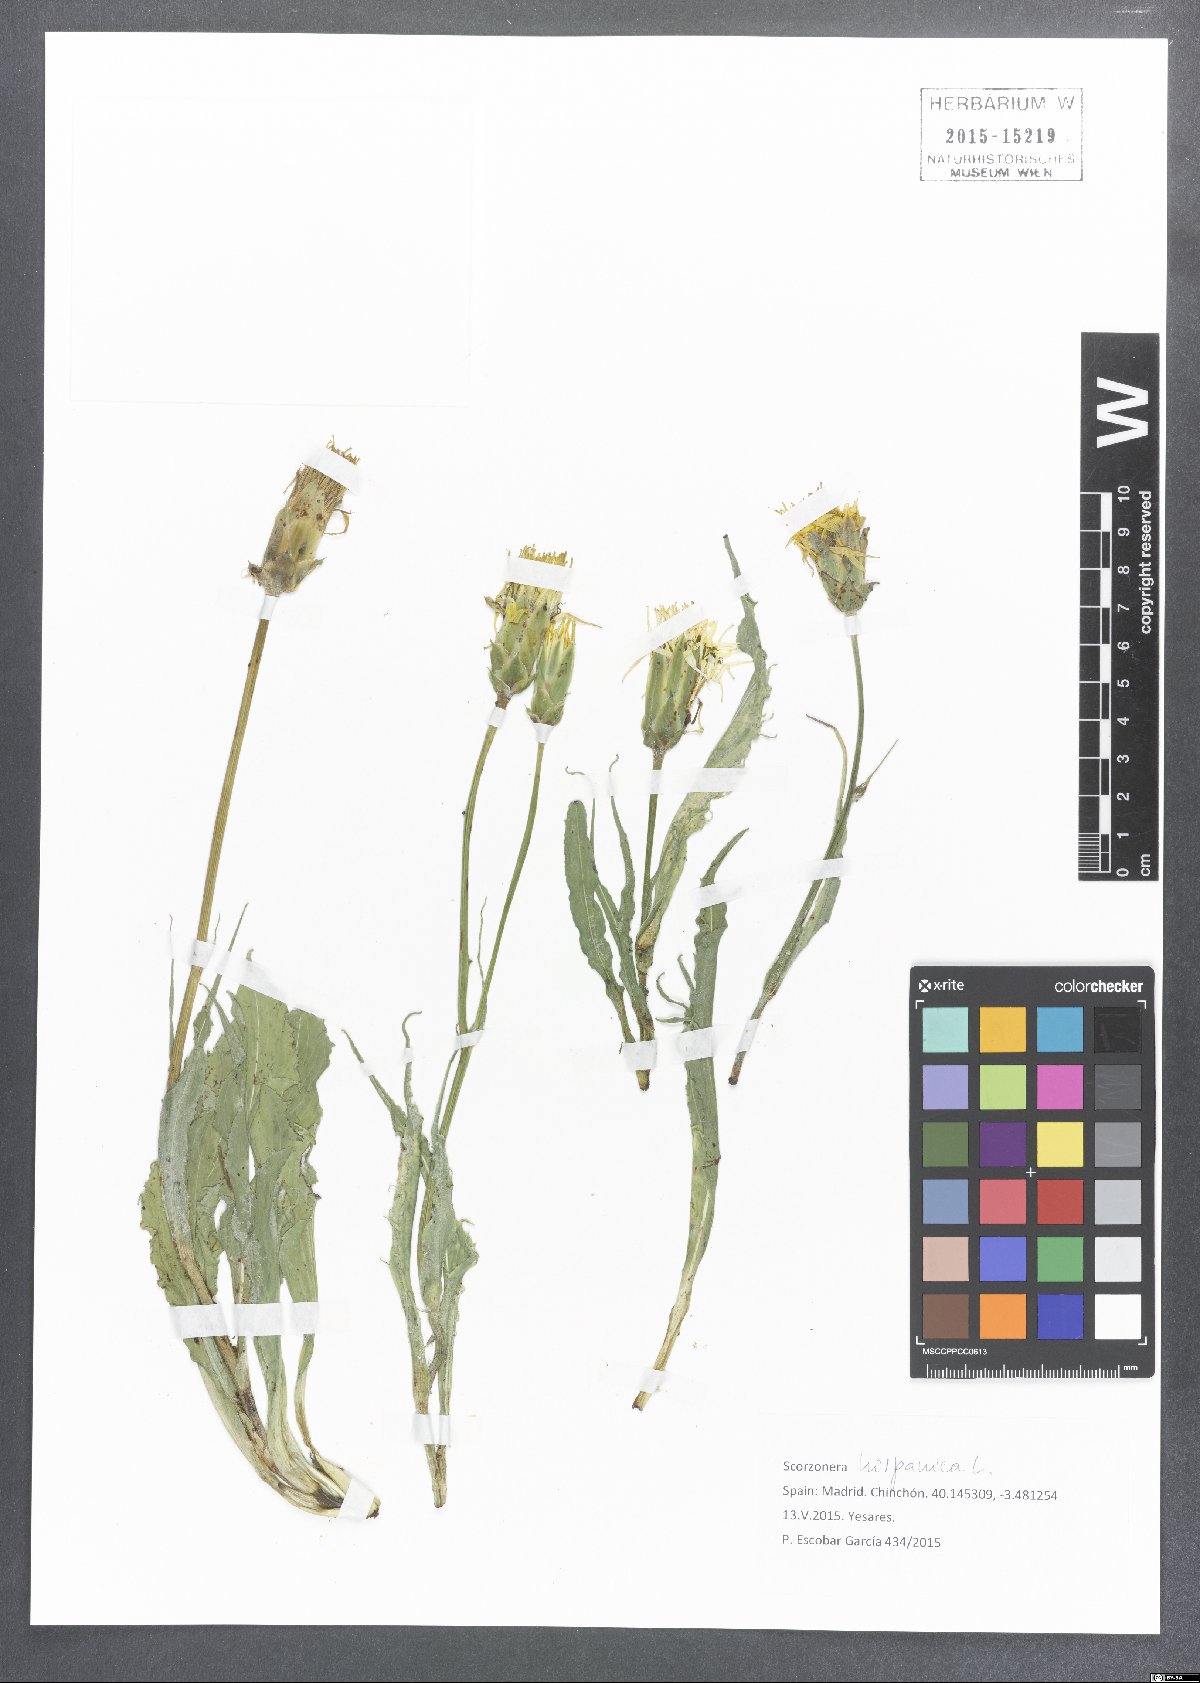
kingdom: Plantae
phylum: Tracheophyta
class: Magnoliopsida
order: Asterales
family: Asteraceae
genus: Pseudopodospermum
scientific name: Pseudopodospermum hispanicum
